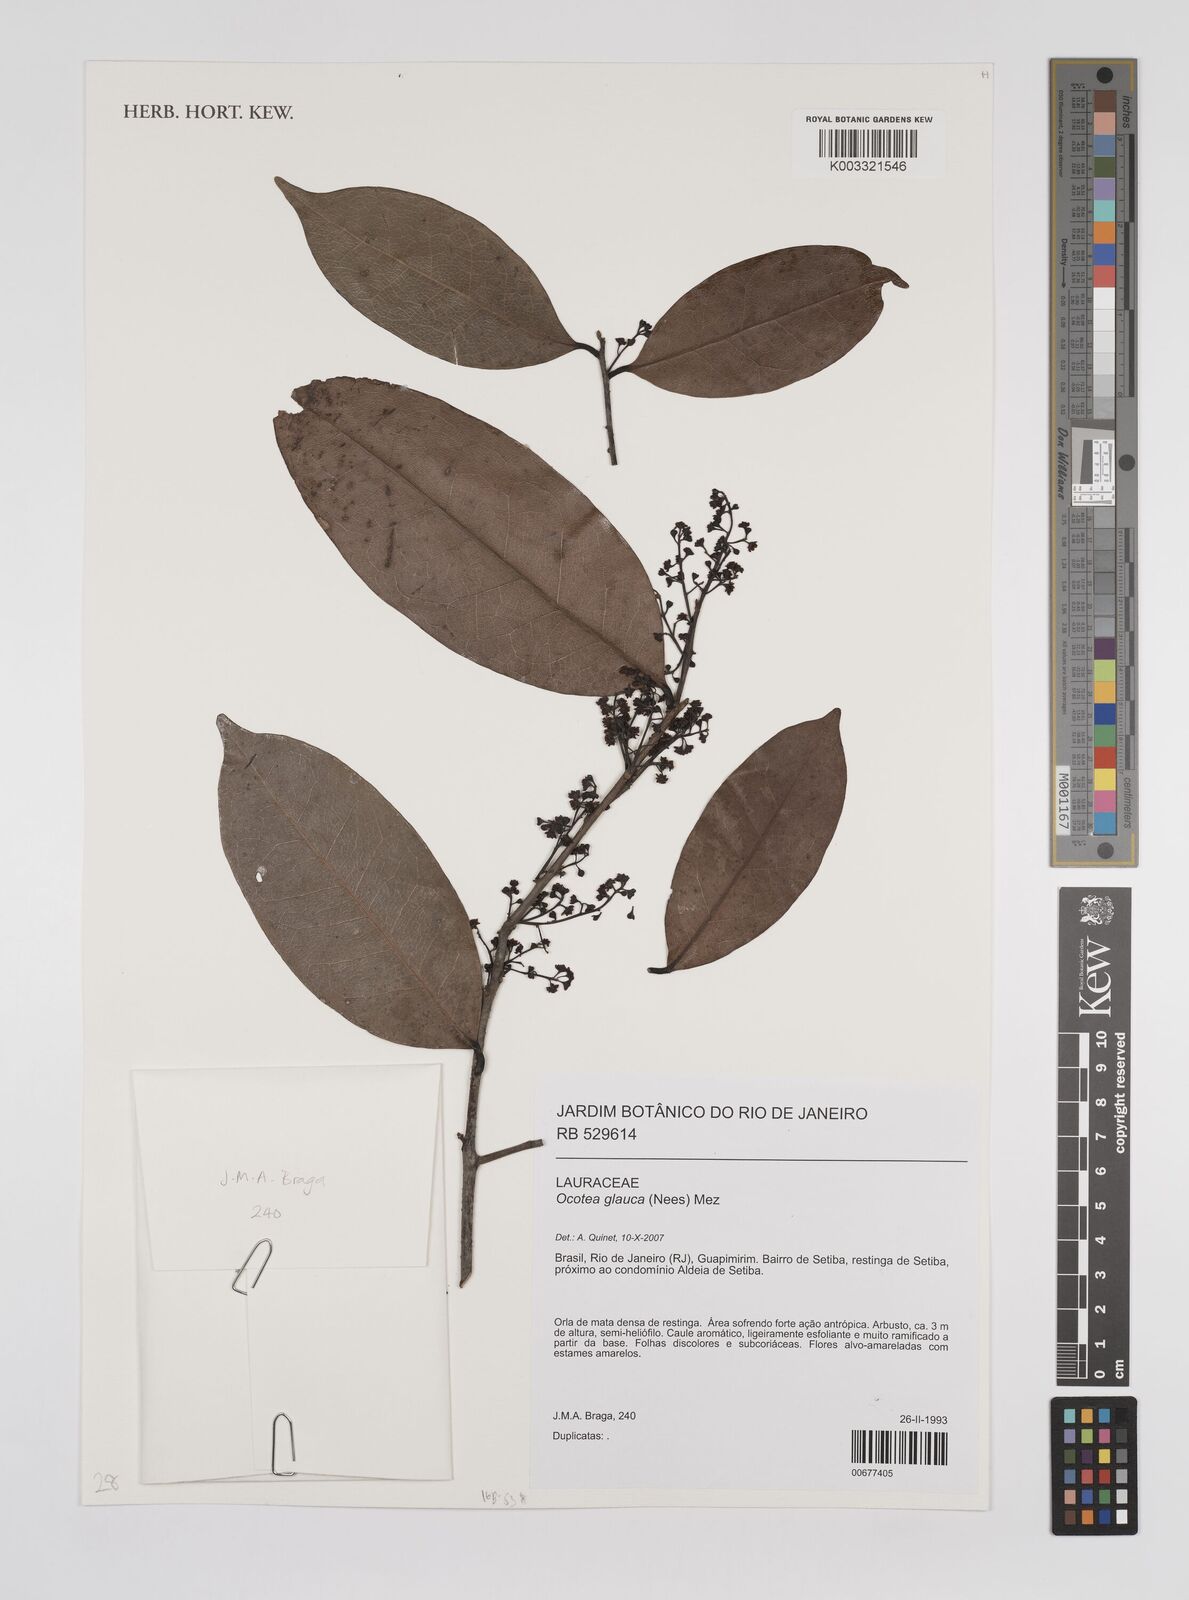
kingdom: Plantae
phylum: Tracheophyta
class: Magnoliopsida
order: Laurales
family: Lauraceae
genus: Mespilodaphne
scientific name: Mespilodaphne glauca
